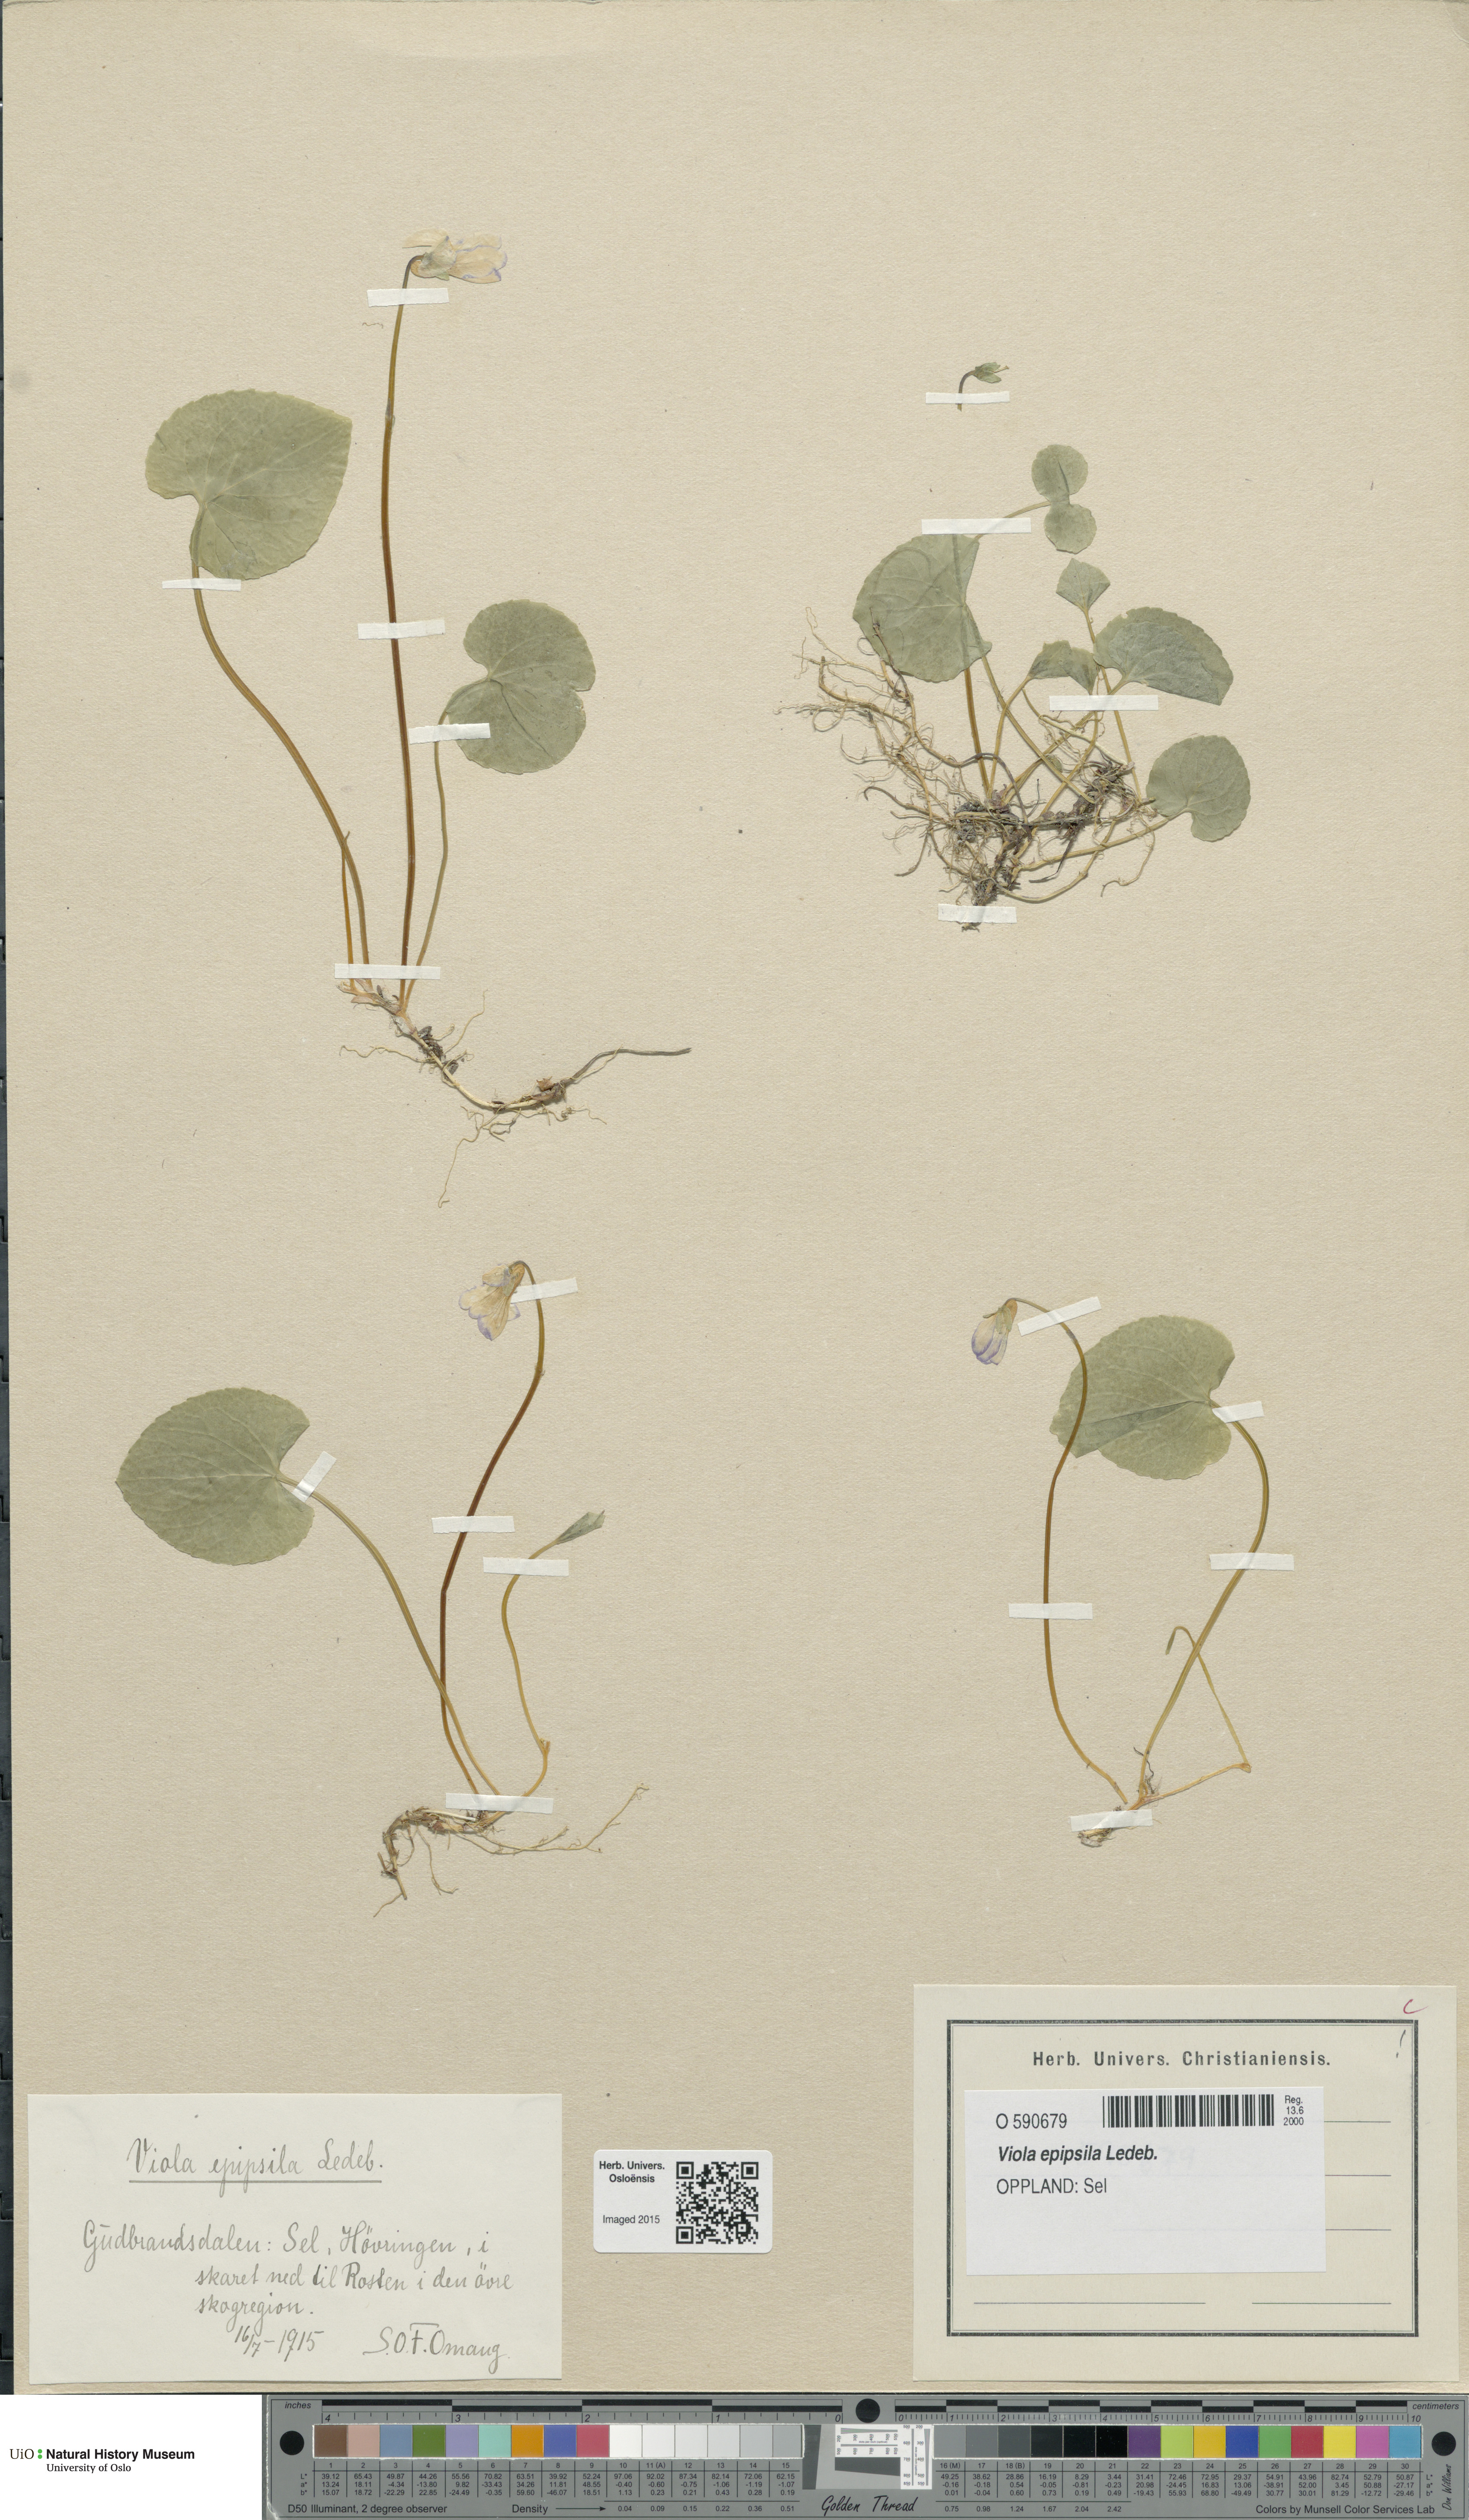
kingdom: Plantae
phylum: Tracheophyta
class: Magnoliopsida
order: Malpighiales
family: Violaceae
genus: Viola
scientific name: Viola epipsila
